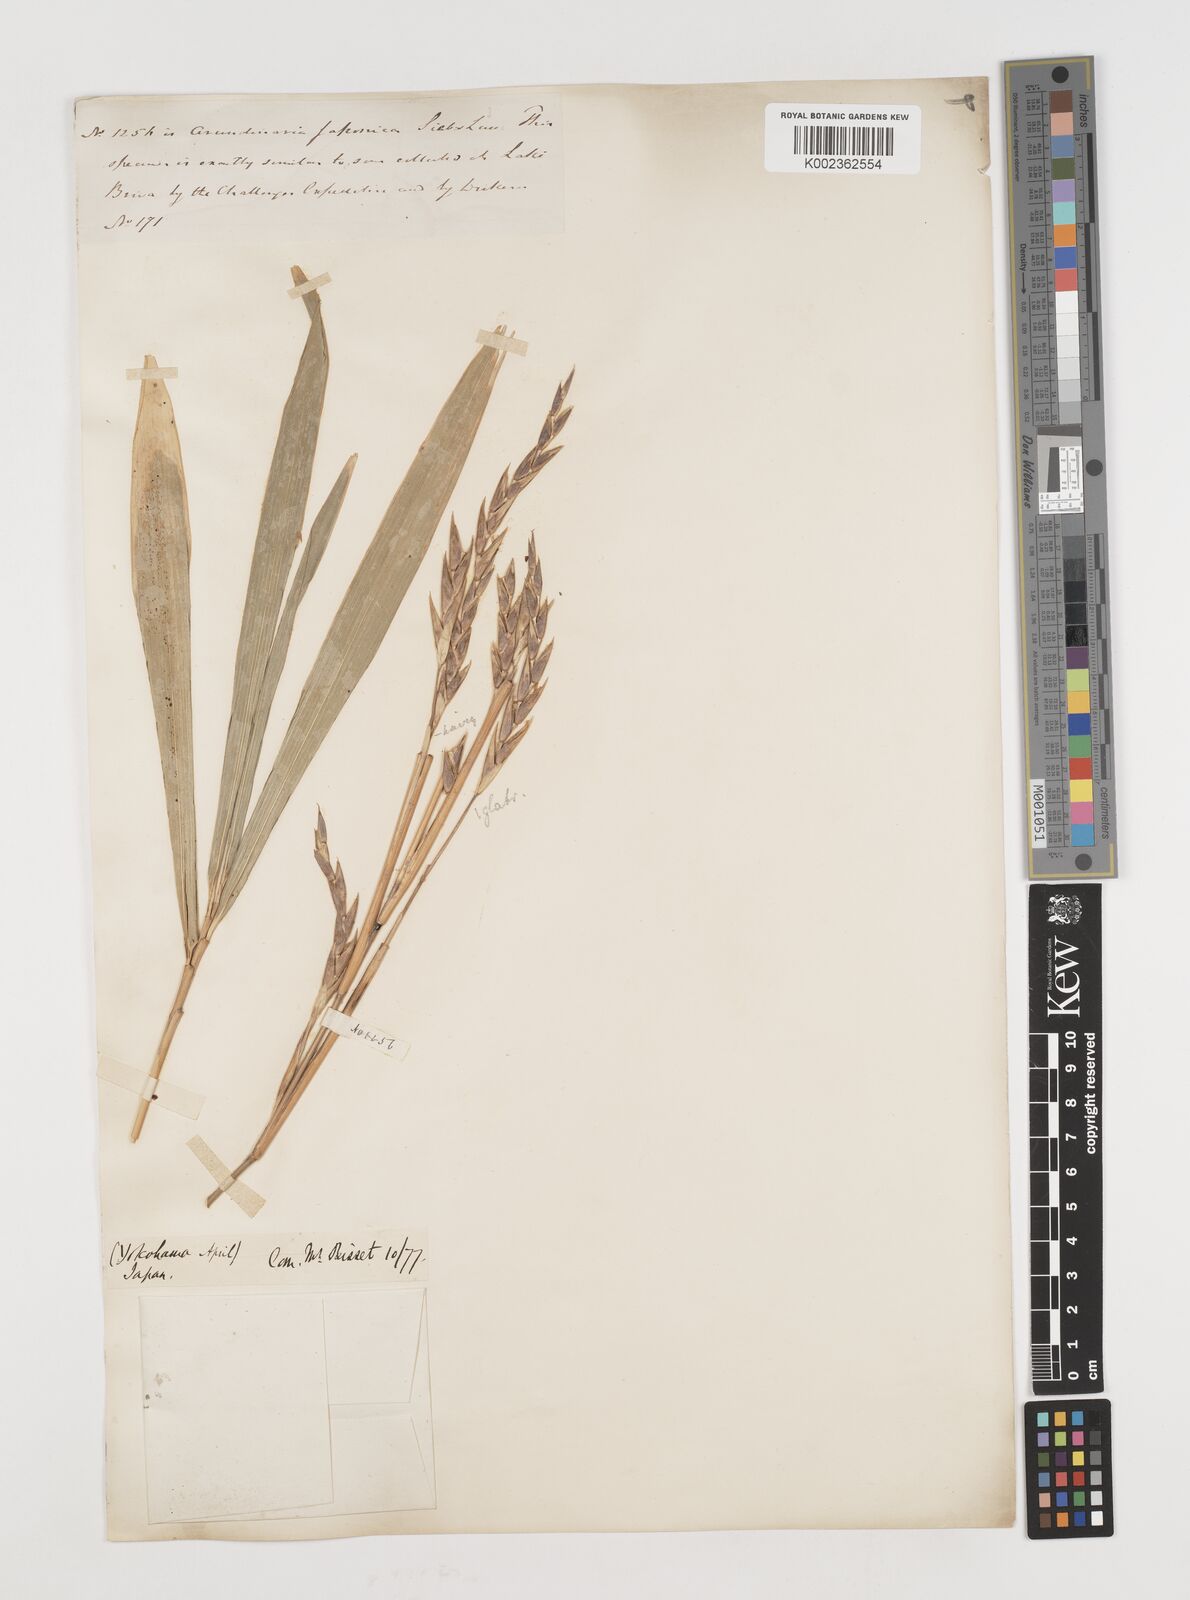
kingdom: Plantae
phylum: Tracheophyta
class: Liliopsida
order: Poales
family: Poaceae
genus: Pseudosasa
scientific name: Pseudosasa japonica
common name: Arrow bamboo
